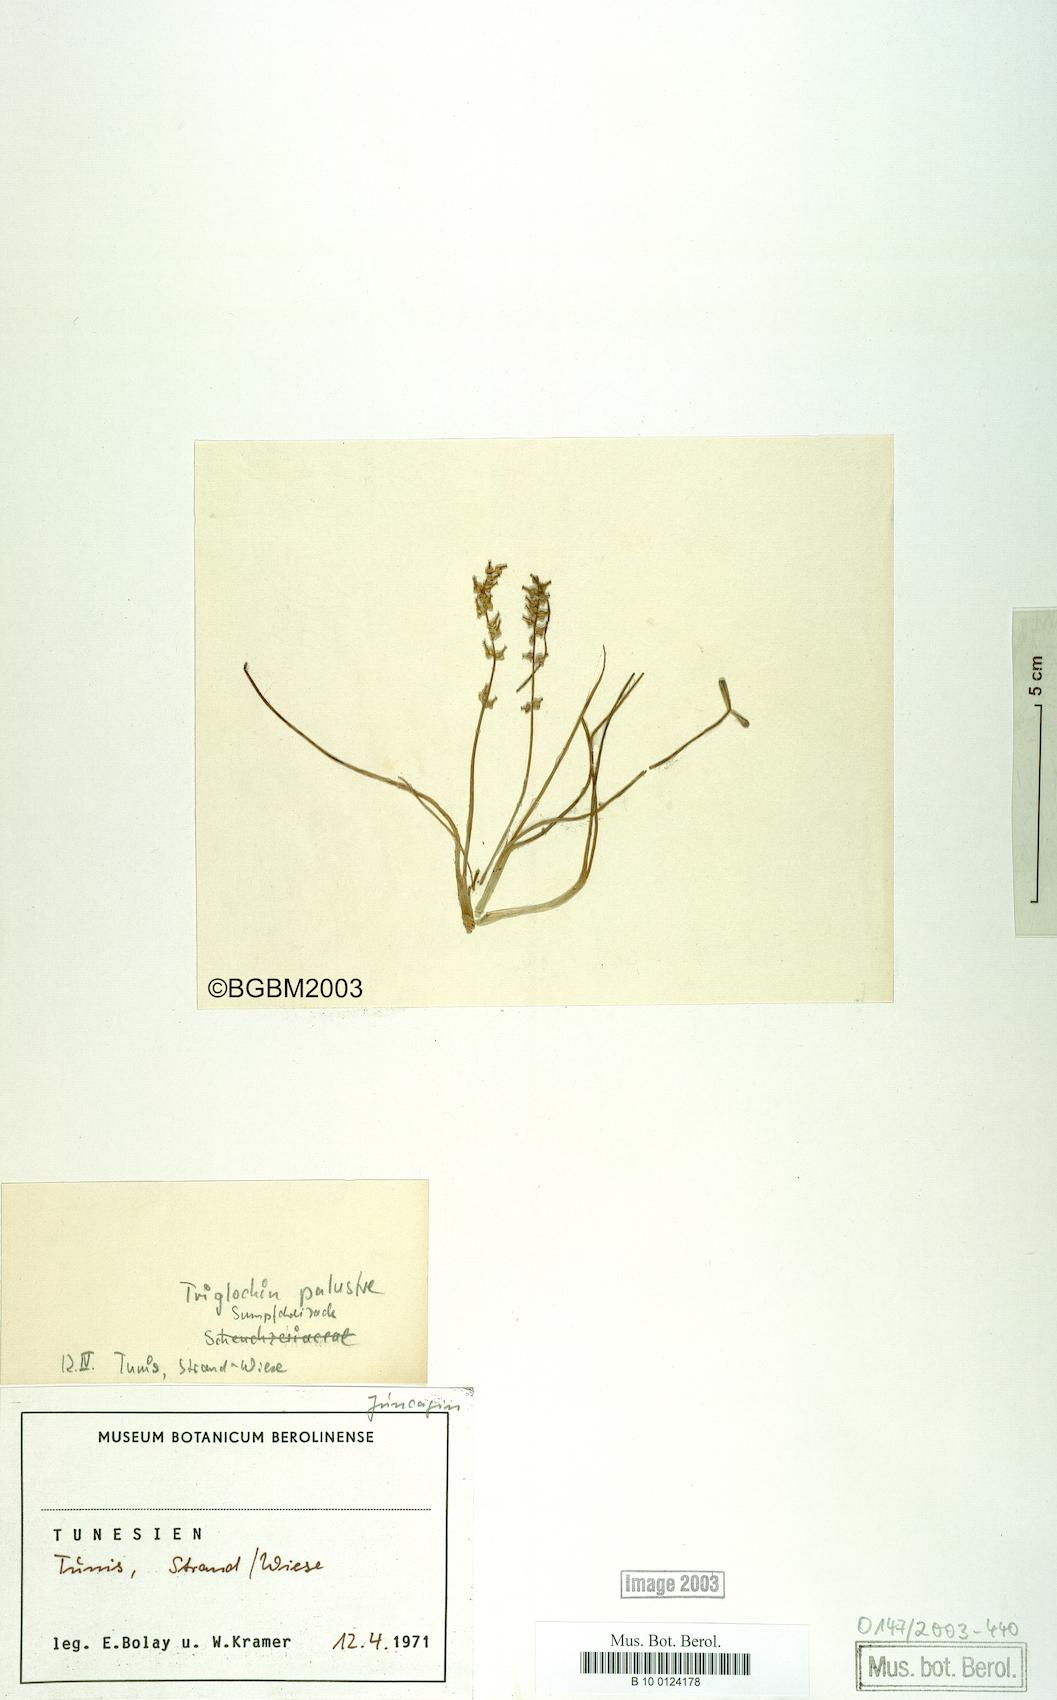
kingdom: Plantae
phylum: Tracheophyta
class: Liliopsida
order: Alismatales
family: Juncaginaceae
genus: Triglochin
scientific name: Triglochin barrelieri
